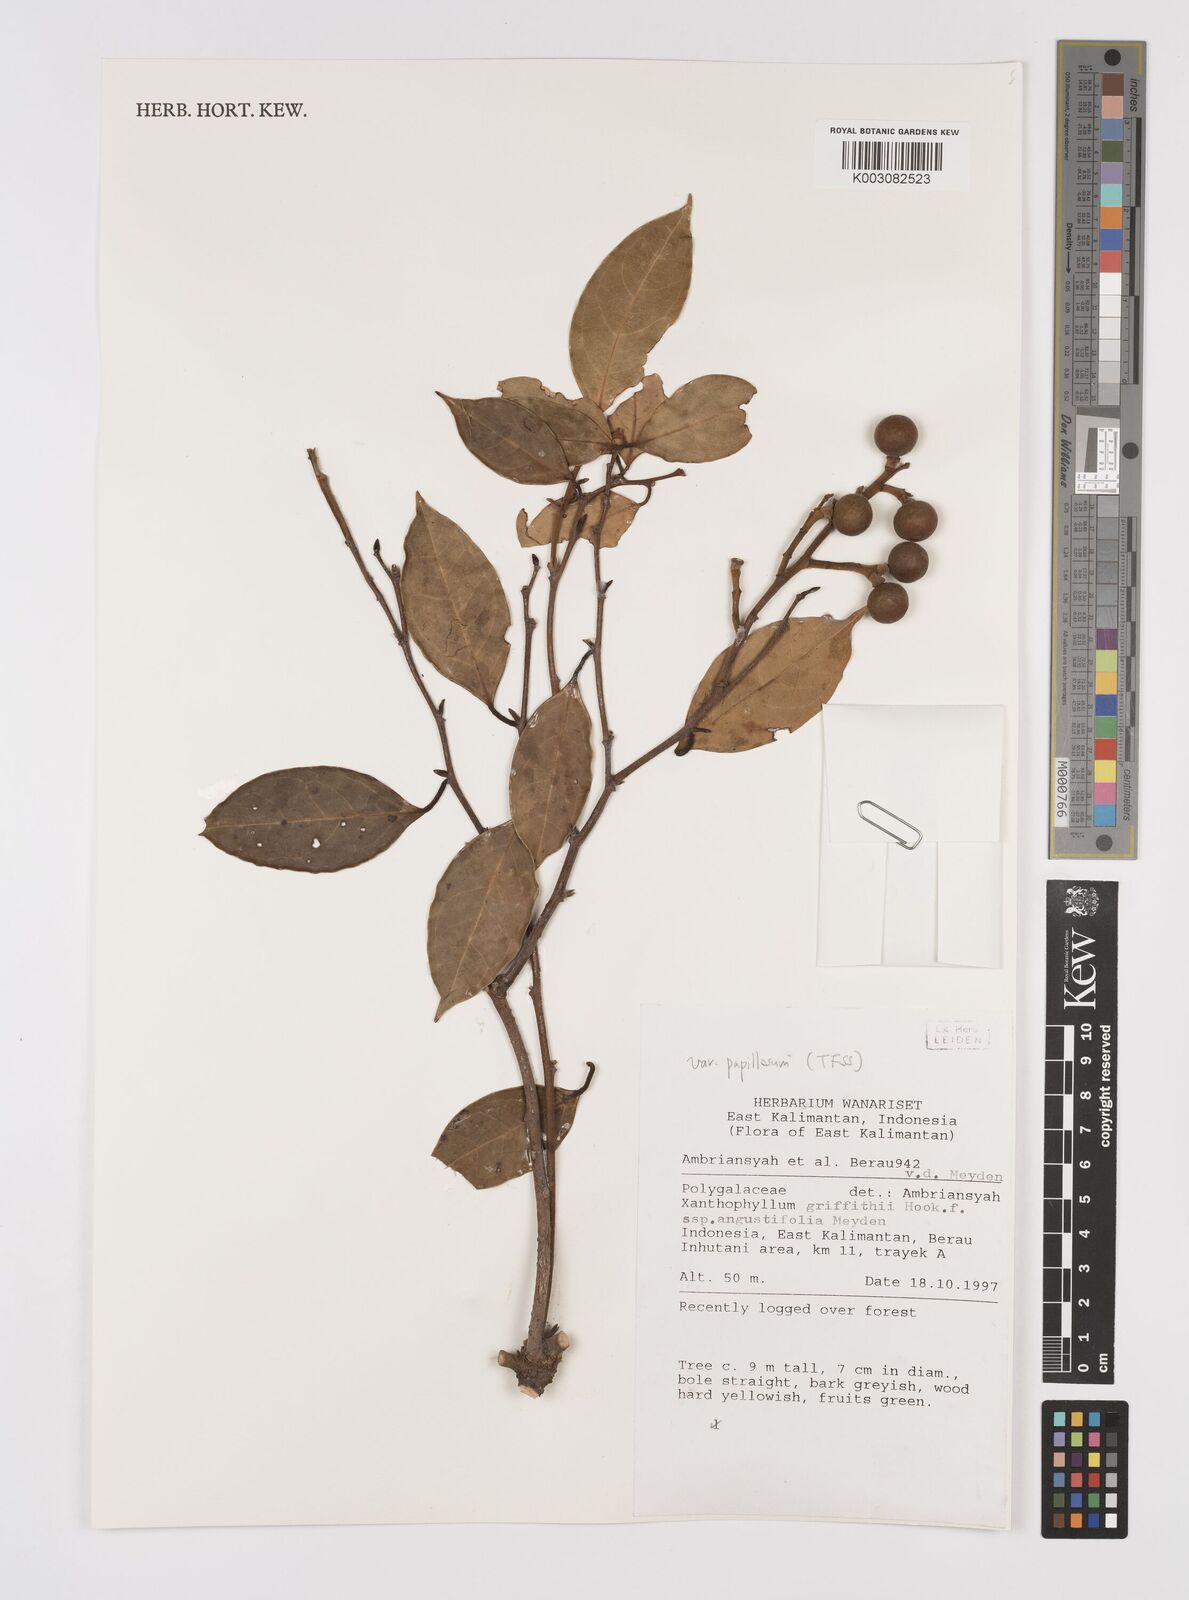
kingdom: Plantae
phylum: Tracheophyta
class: Magnoliopsida
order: Fabales
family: Polygalaceae
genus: Xanthophyllum
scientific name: Xanthophyllum griffithii
